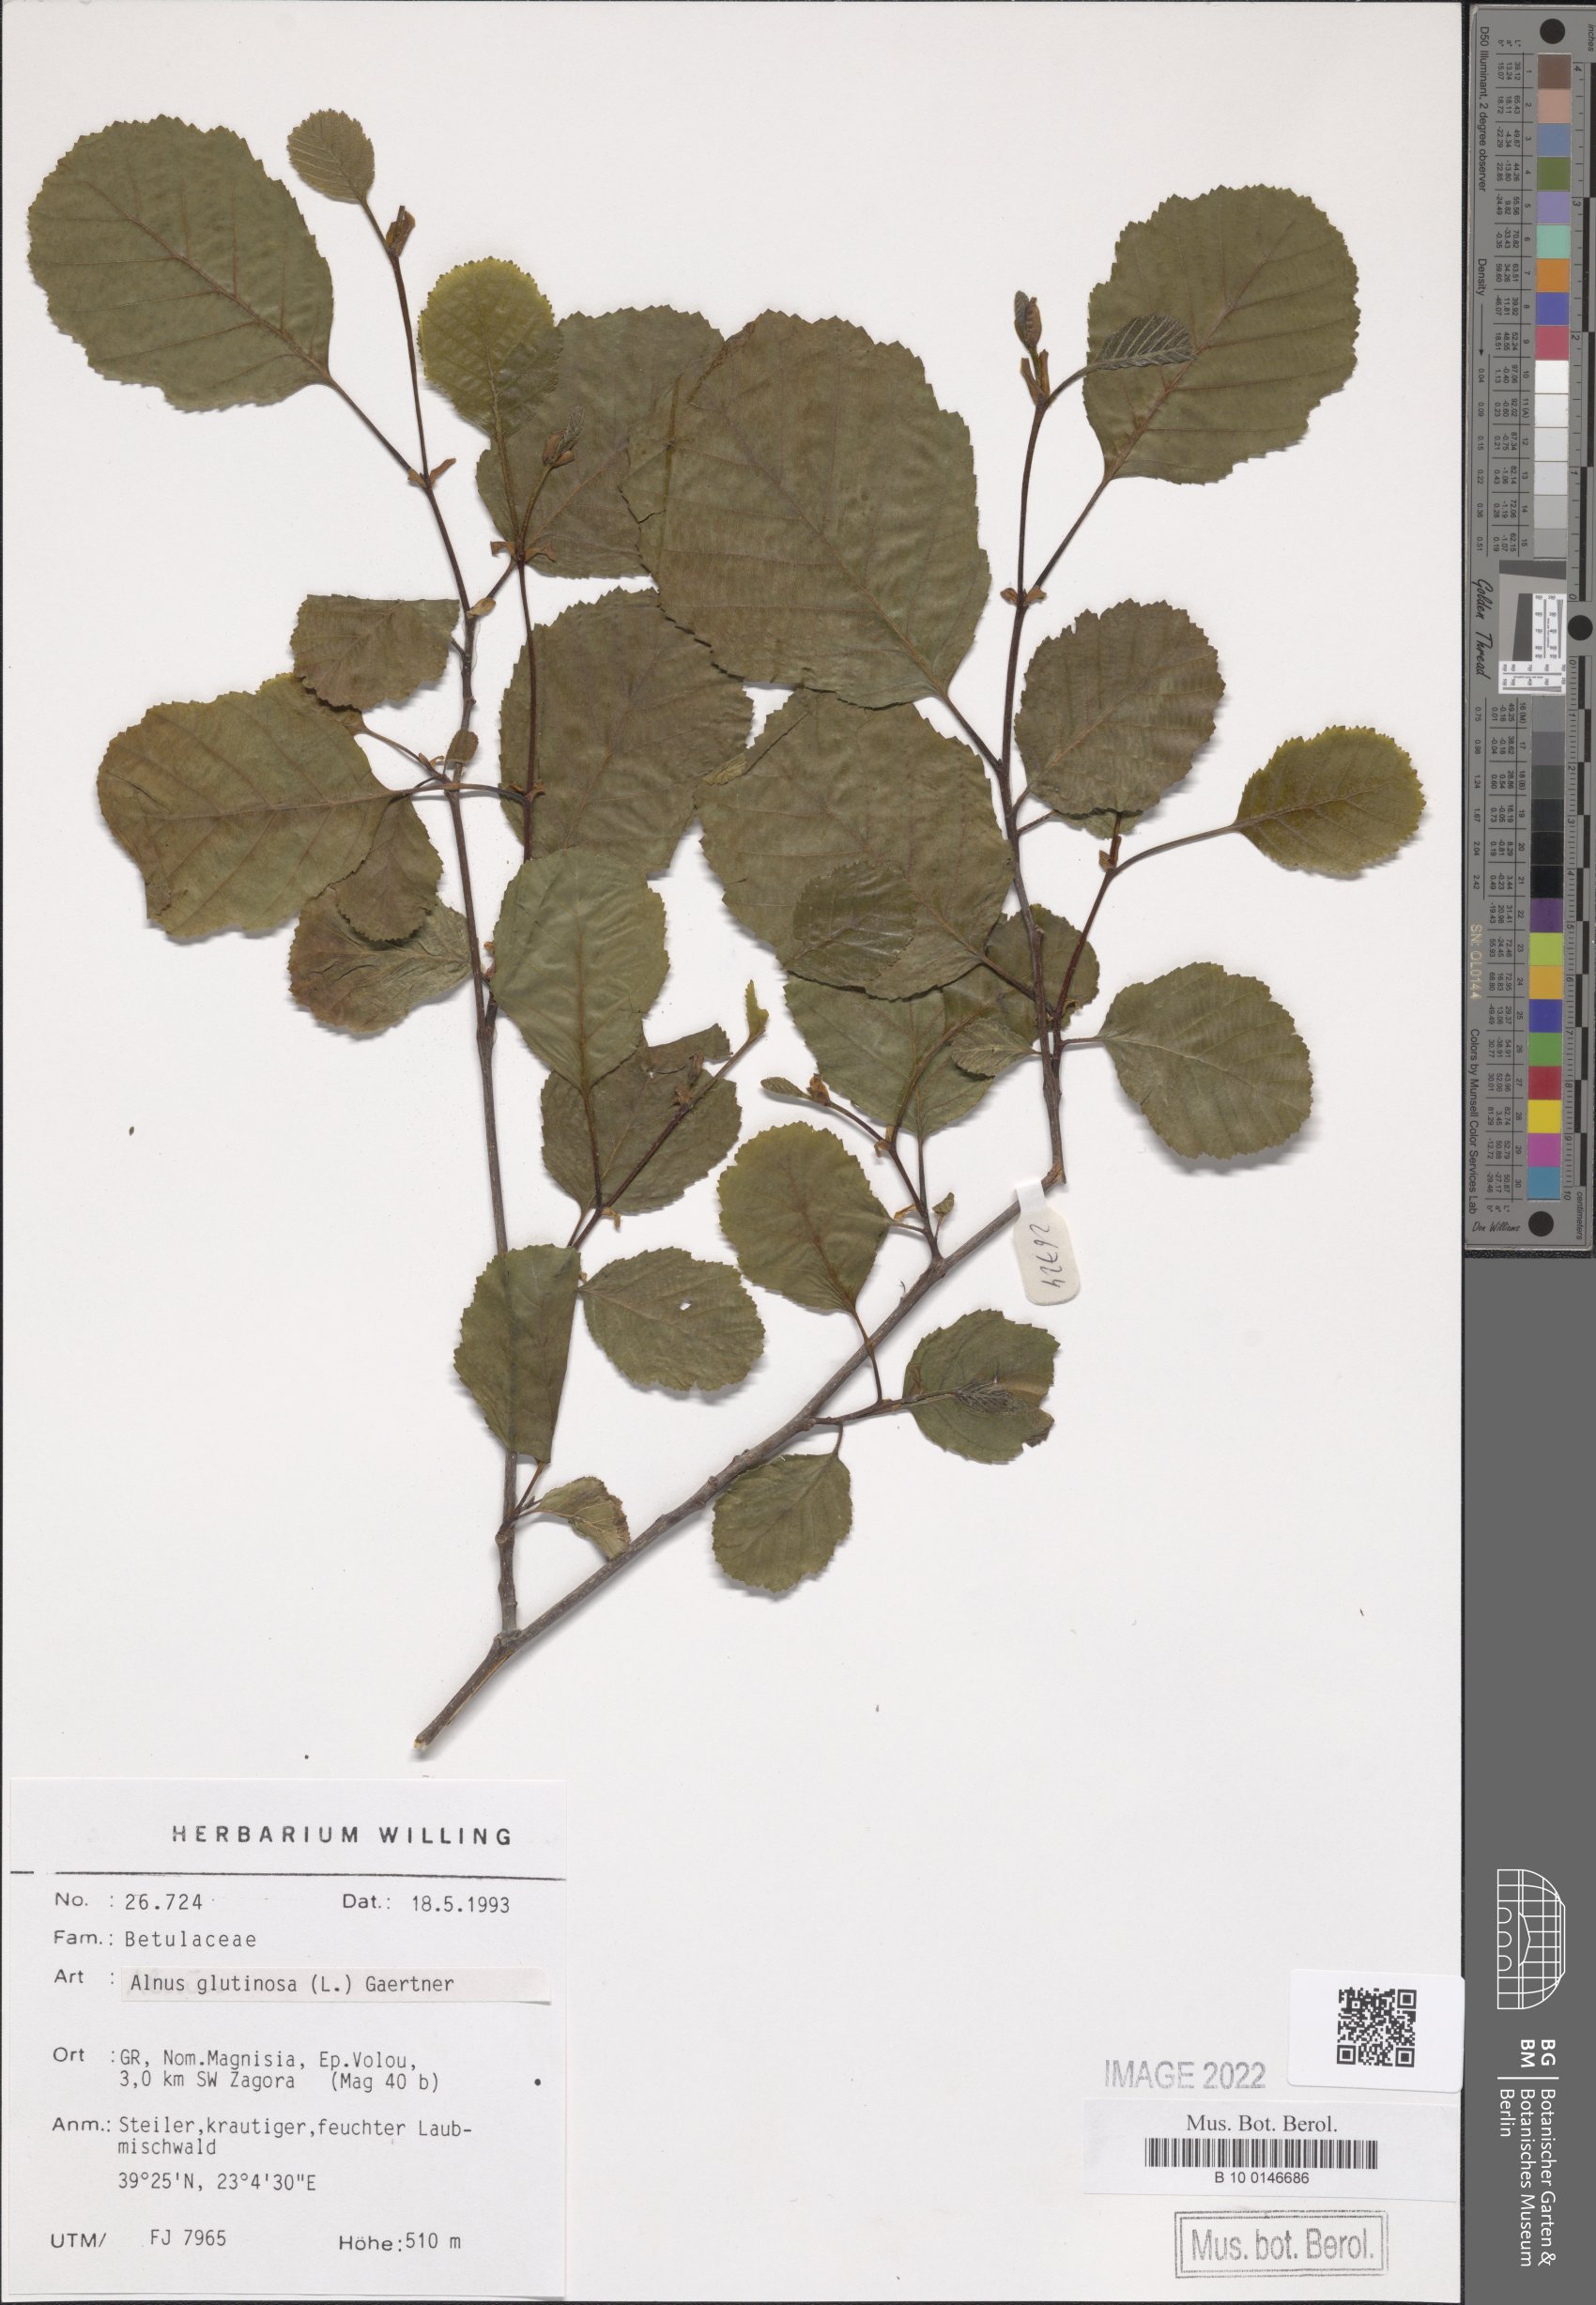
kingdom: Plantae
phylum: Tracheophyta
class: Magnoliopsida
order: Fagales
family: Betulaceae
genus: Alnus
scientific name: Alnus glutinosa
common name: Black alder
